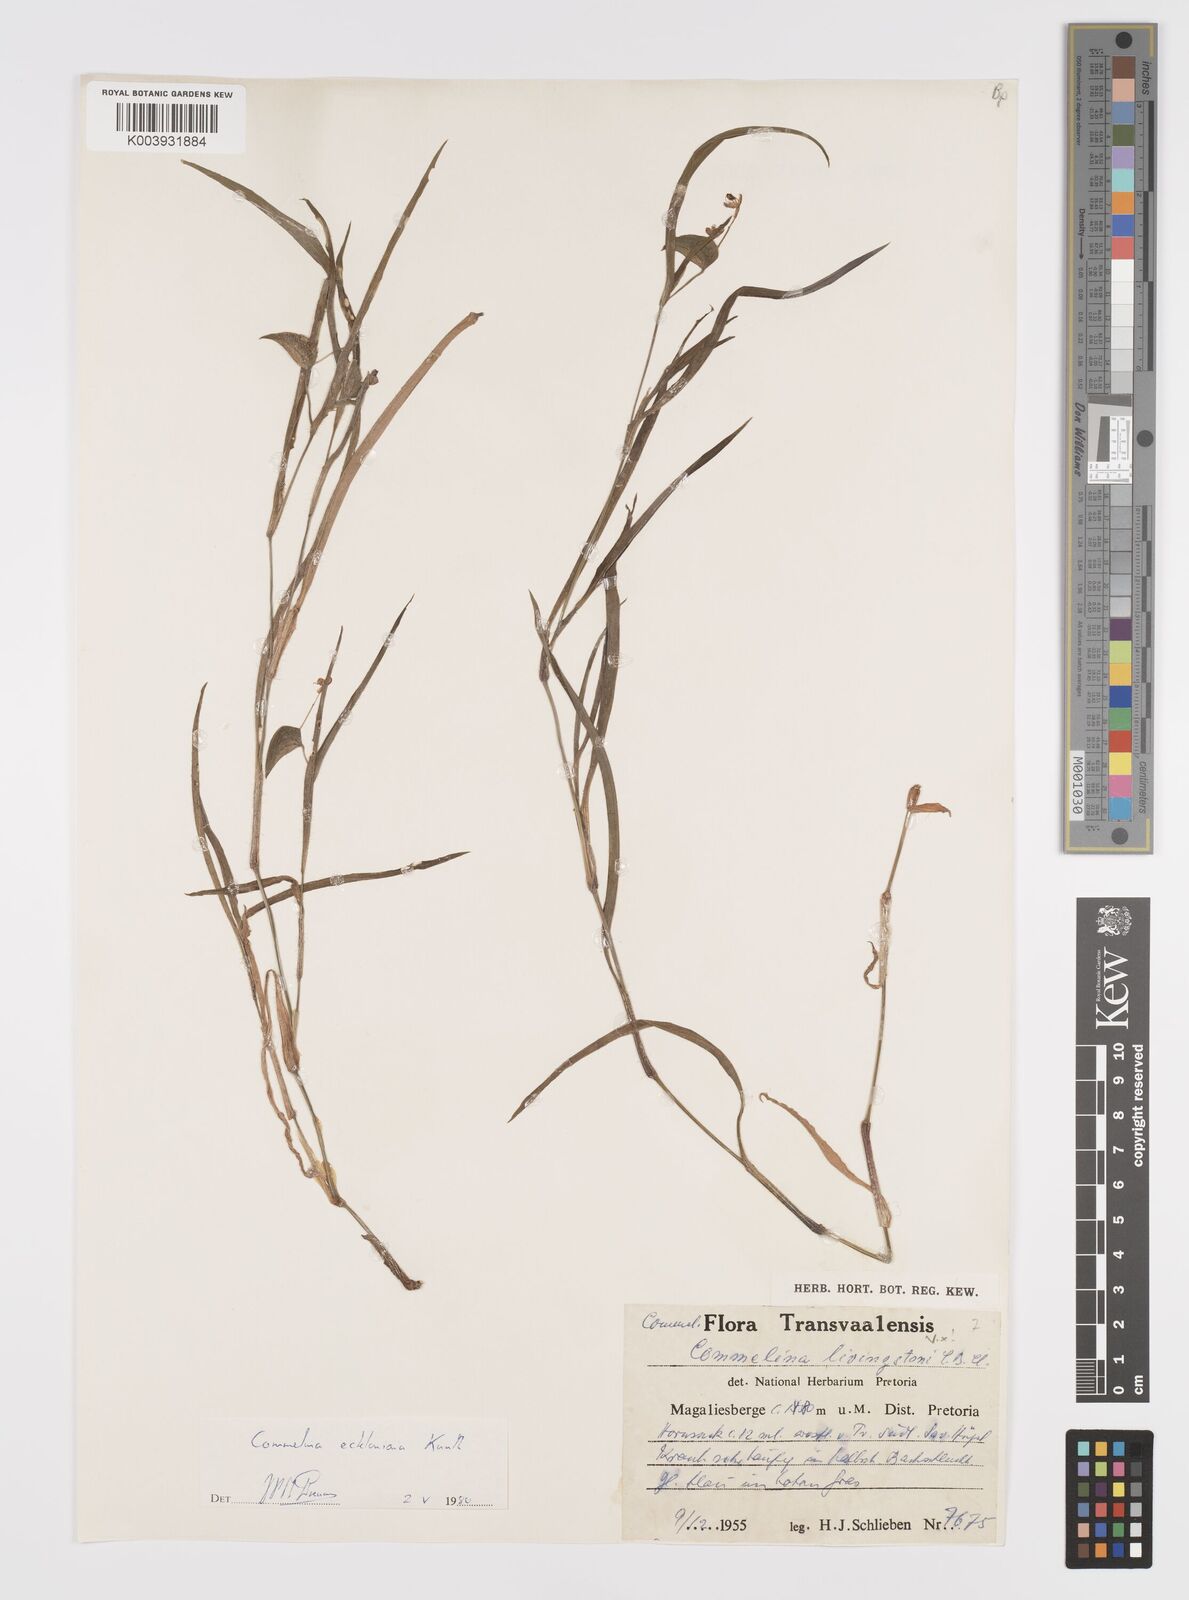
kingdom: Plantae
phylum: Tracheophyta
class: Liliopsida
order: Commelinales
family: Commelinaceae
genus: Commelina
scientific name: Commelina eckloniana
